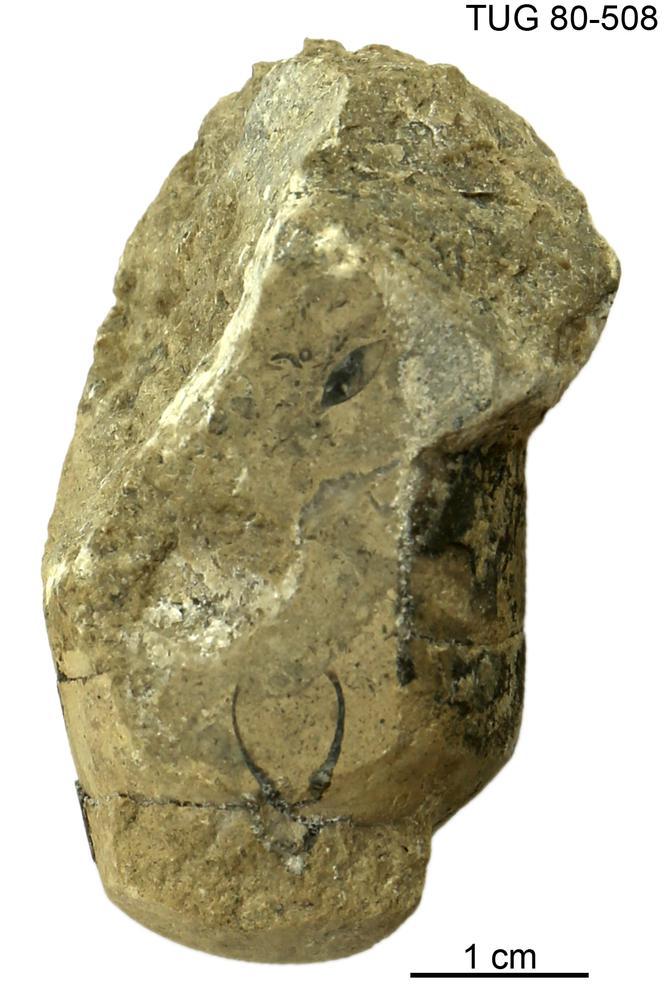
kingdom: Animalia
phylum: Mollusca
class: Cephalopoda
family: Protophragmoceratidae
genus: Protophragmoceras
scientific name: Protophragmoceras
